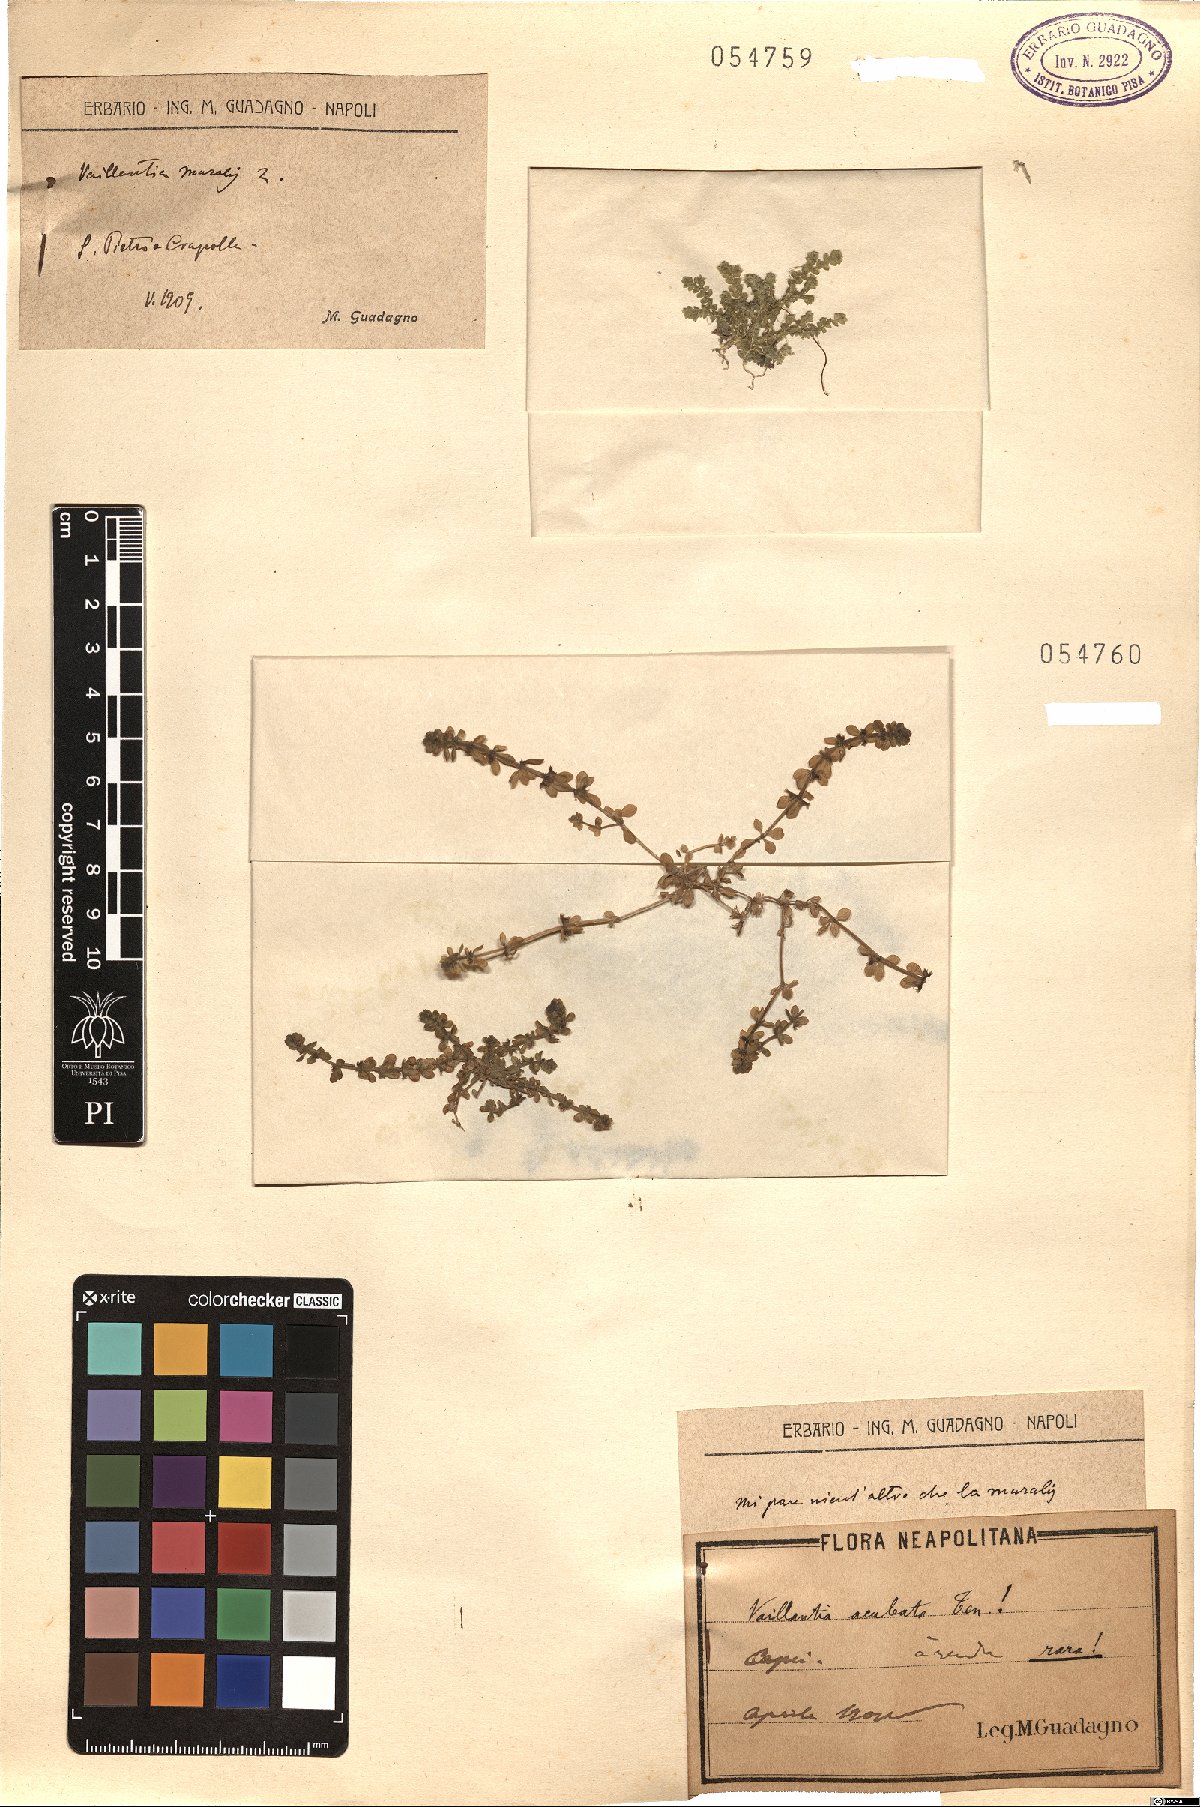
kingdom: Plantae
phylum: Tracheophyta
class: Magnoliopsida
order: Gentianales
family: Rubiaceae
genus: Valantia
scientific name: Valantia muralis
